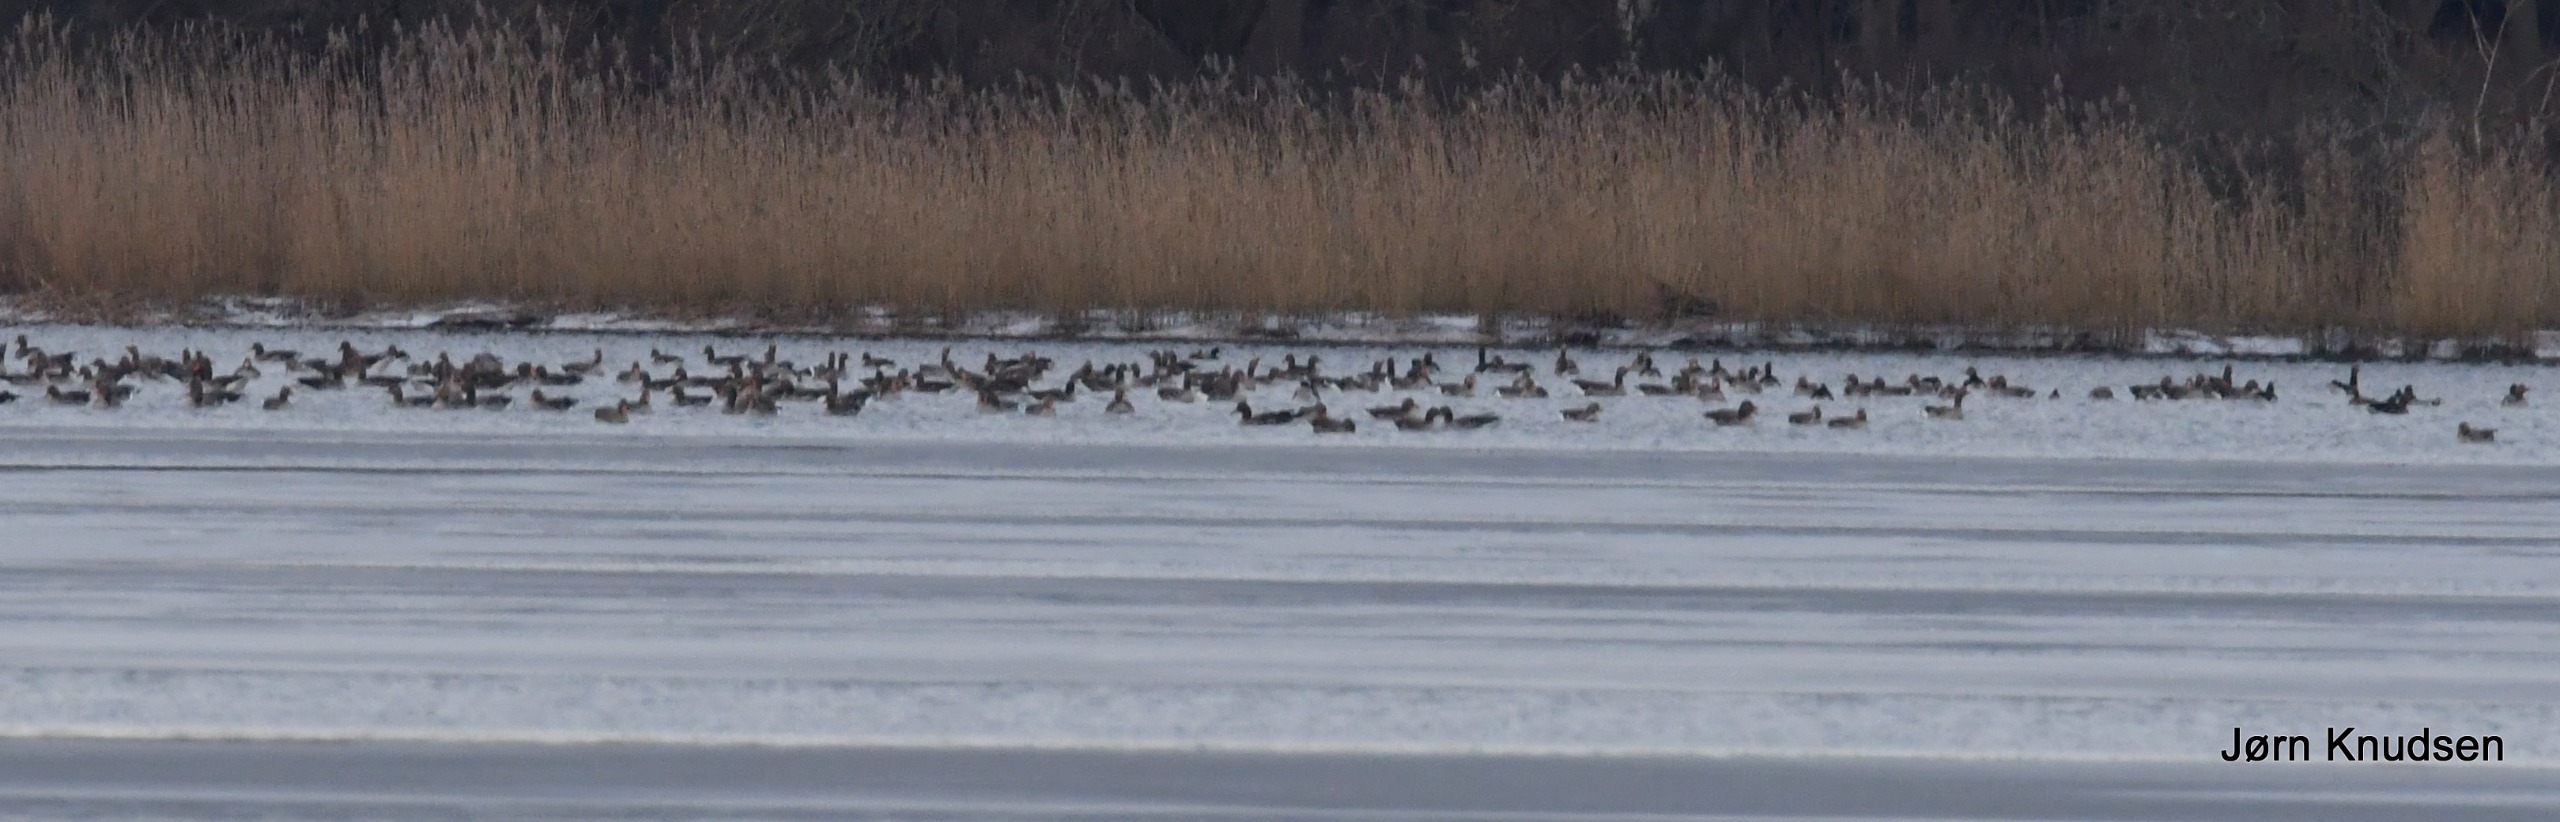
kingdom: Animalia
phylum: Chordata
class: Aves
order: Anseriformes
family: Anatidae
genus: Anser
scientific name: Anser anser
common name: Grågås
